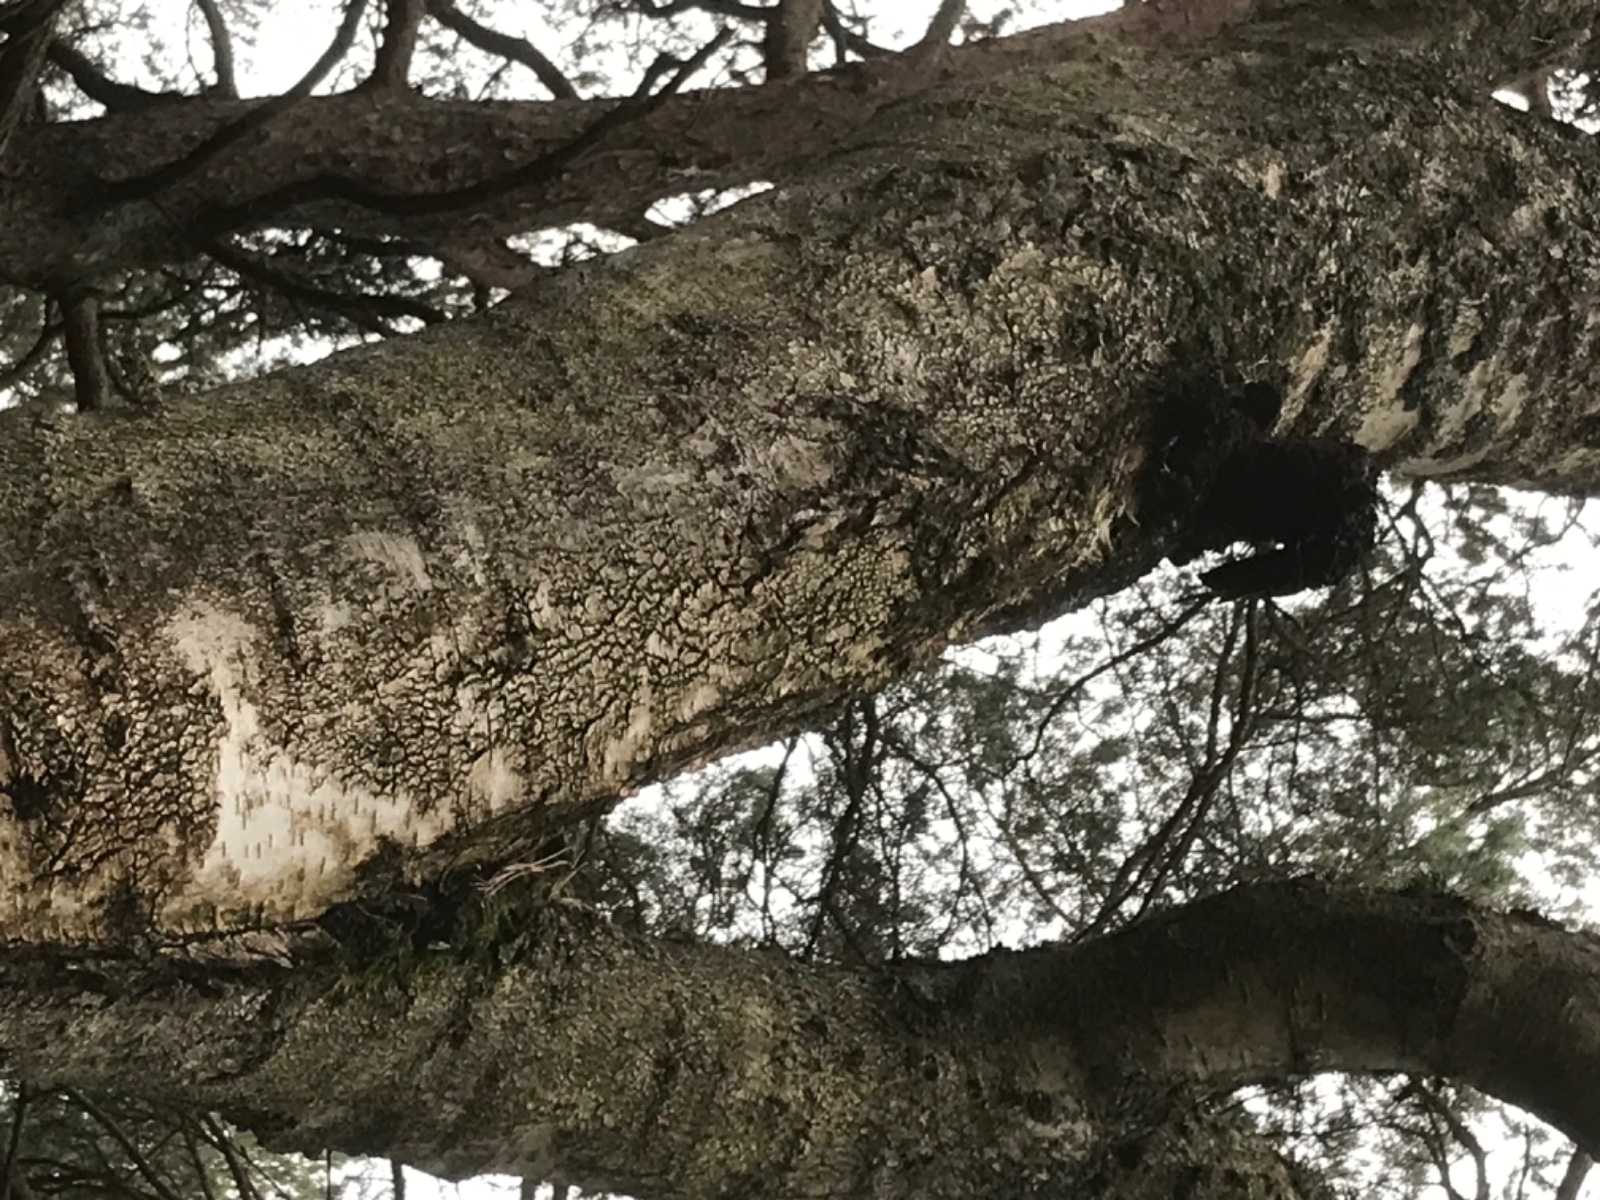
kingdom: Fungi
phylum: Basidiomycota
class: Agaricomycetes
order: Hymenochaetales
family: Hymenochaetaceae
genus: Inonotus
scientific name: Inonotus obliquus
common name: birke-spejlporesvamp
